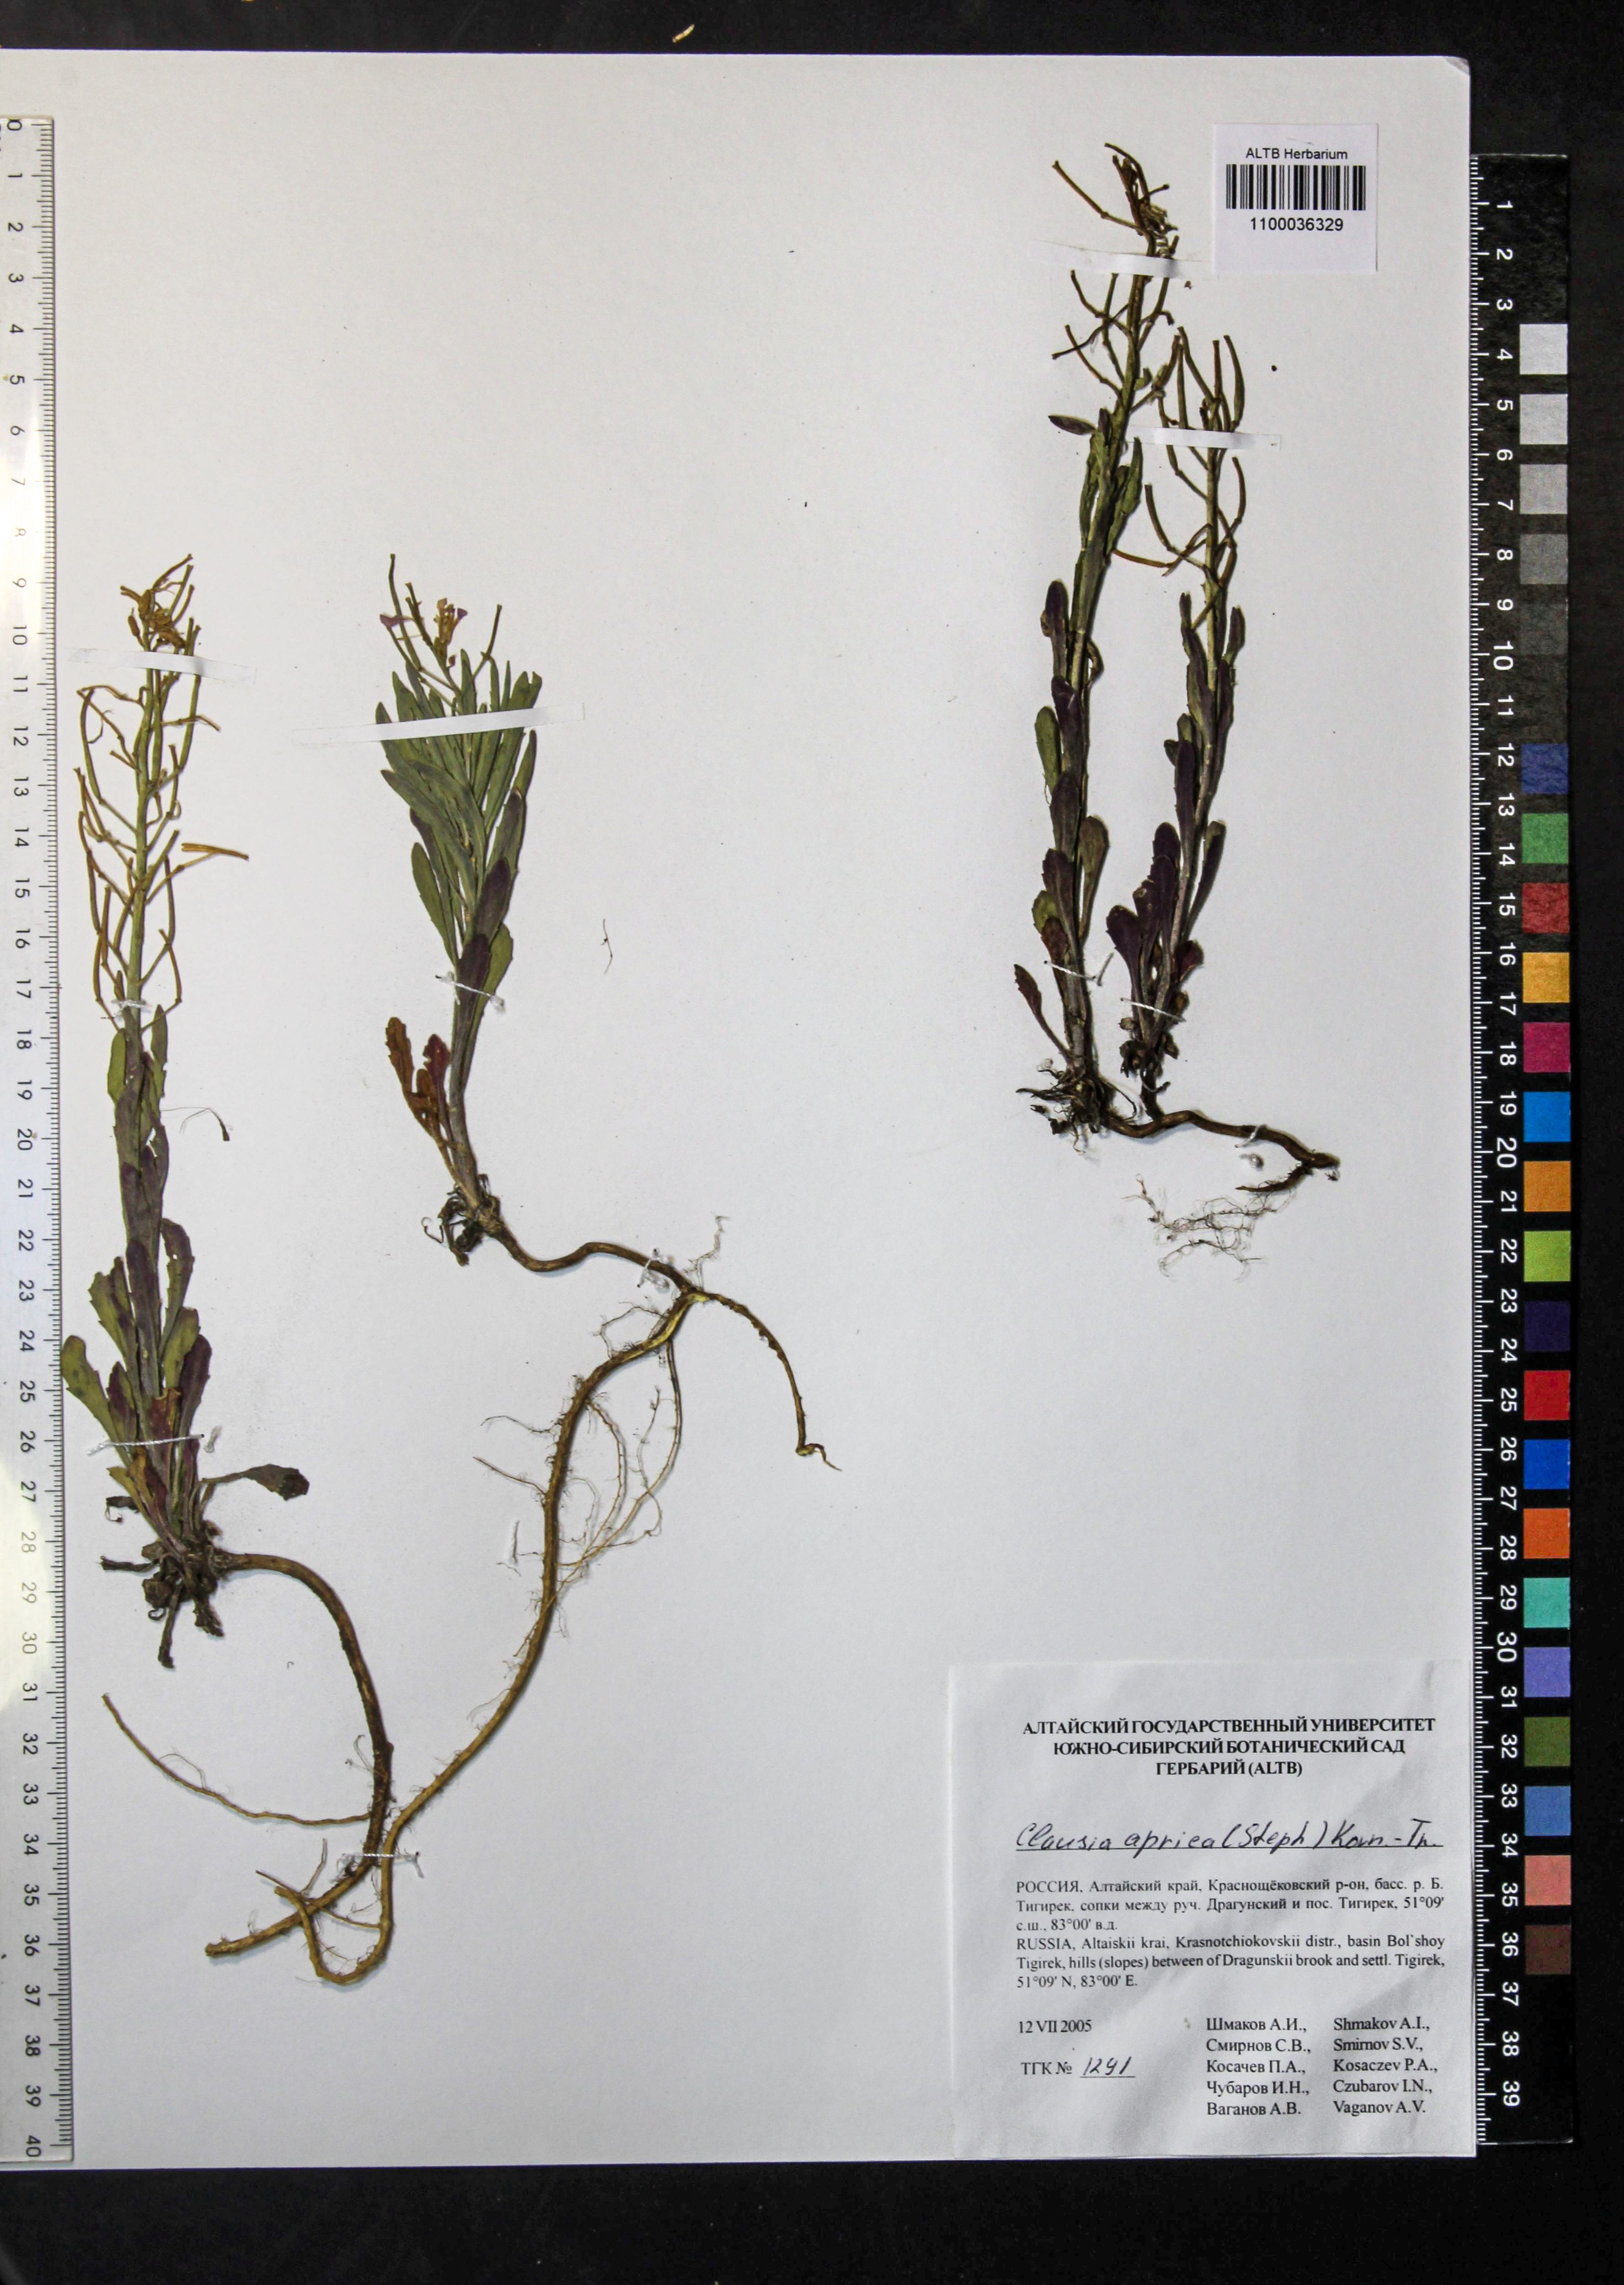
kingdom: Plantae
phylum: Tracheophyta
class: Magnoliopsida
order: Brassicales
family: Brassicaceae
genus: Clausia
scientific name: Clausia aprica
